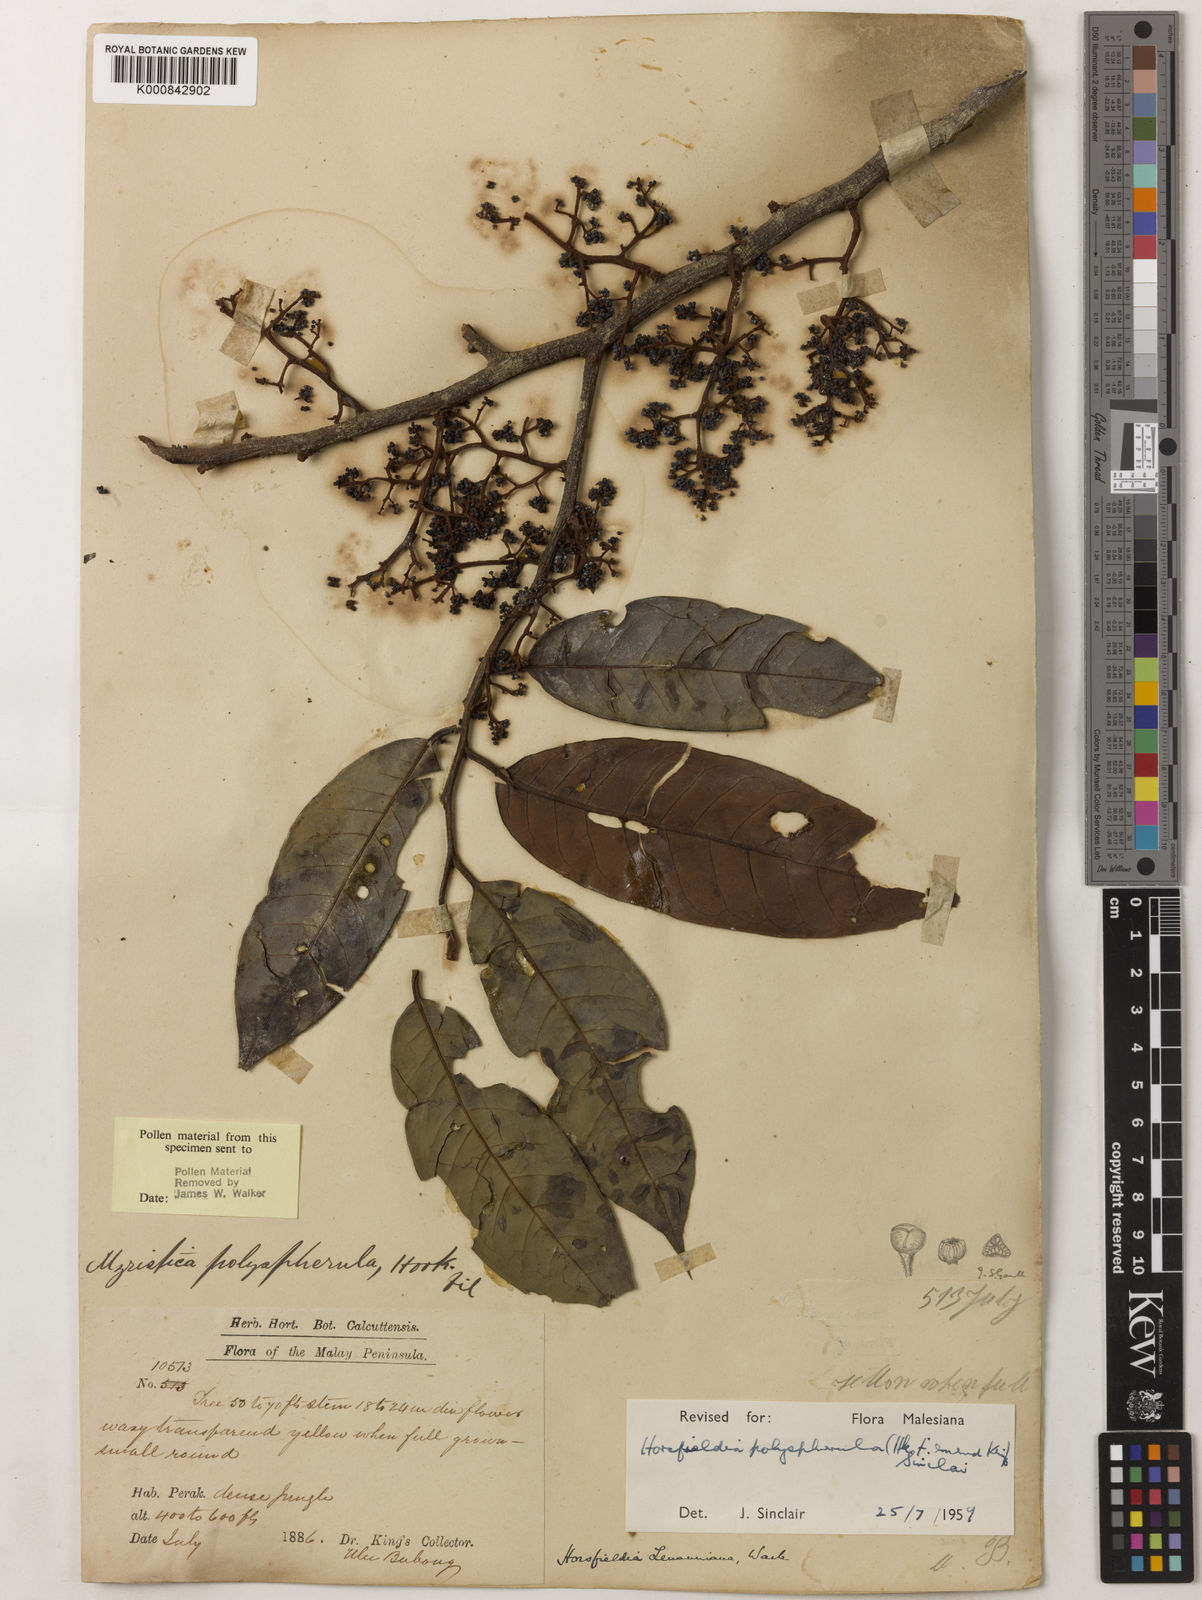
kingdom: Plantae
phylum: Tracheophyta
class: Magnoliopsida
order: Magnoliales
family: Myristicaceae
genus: Horsfieldia
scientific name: Horsfieldia
